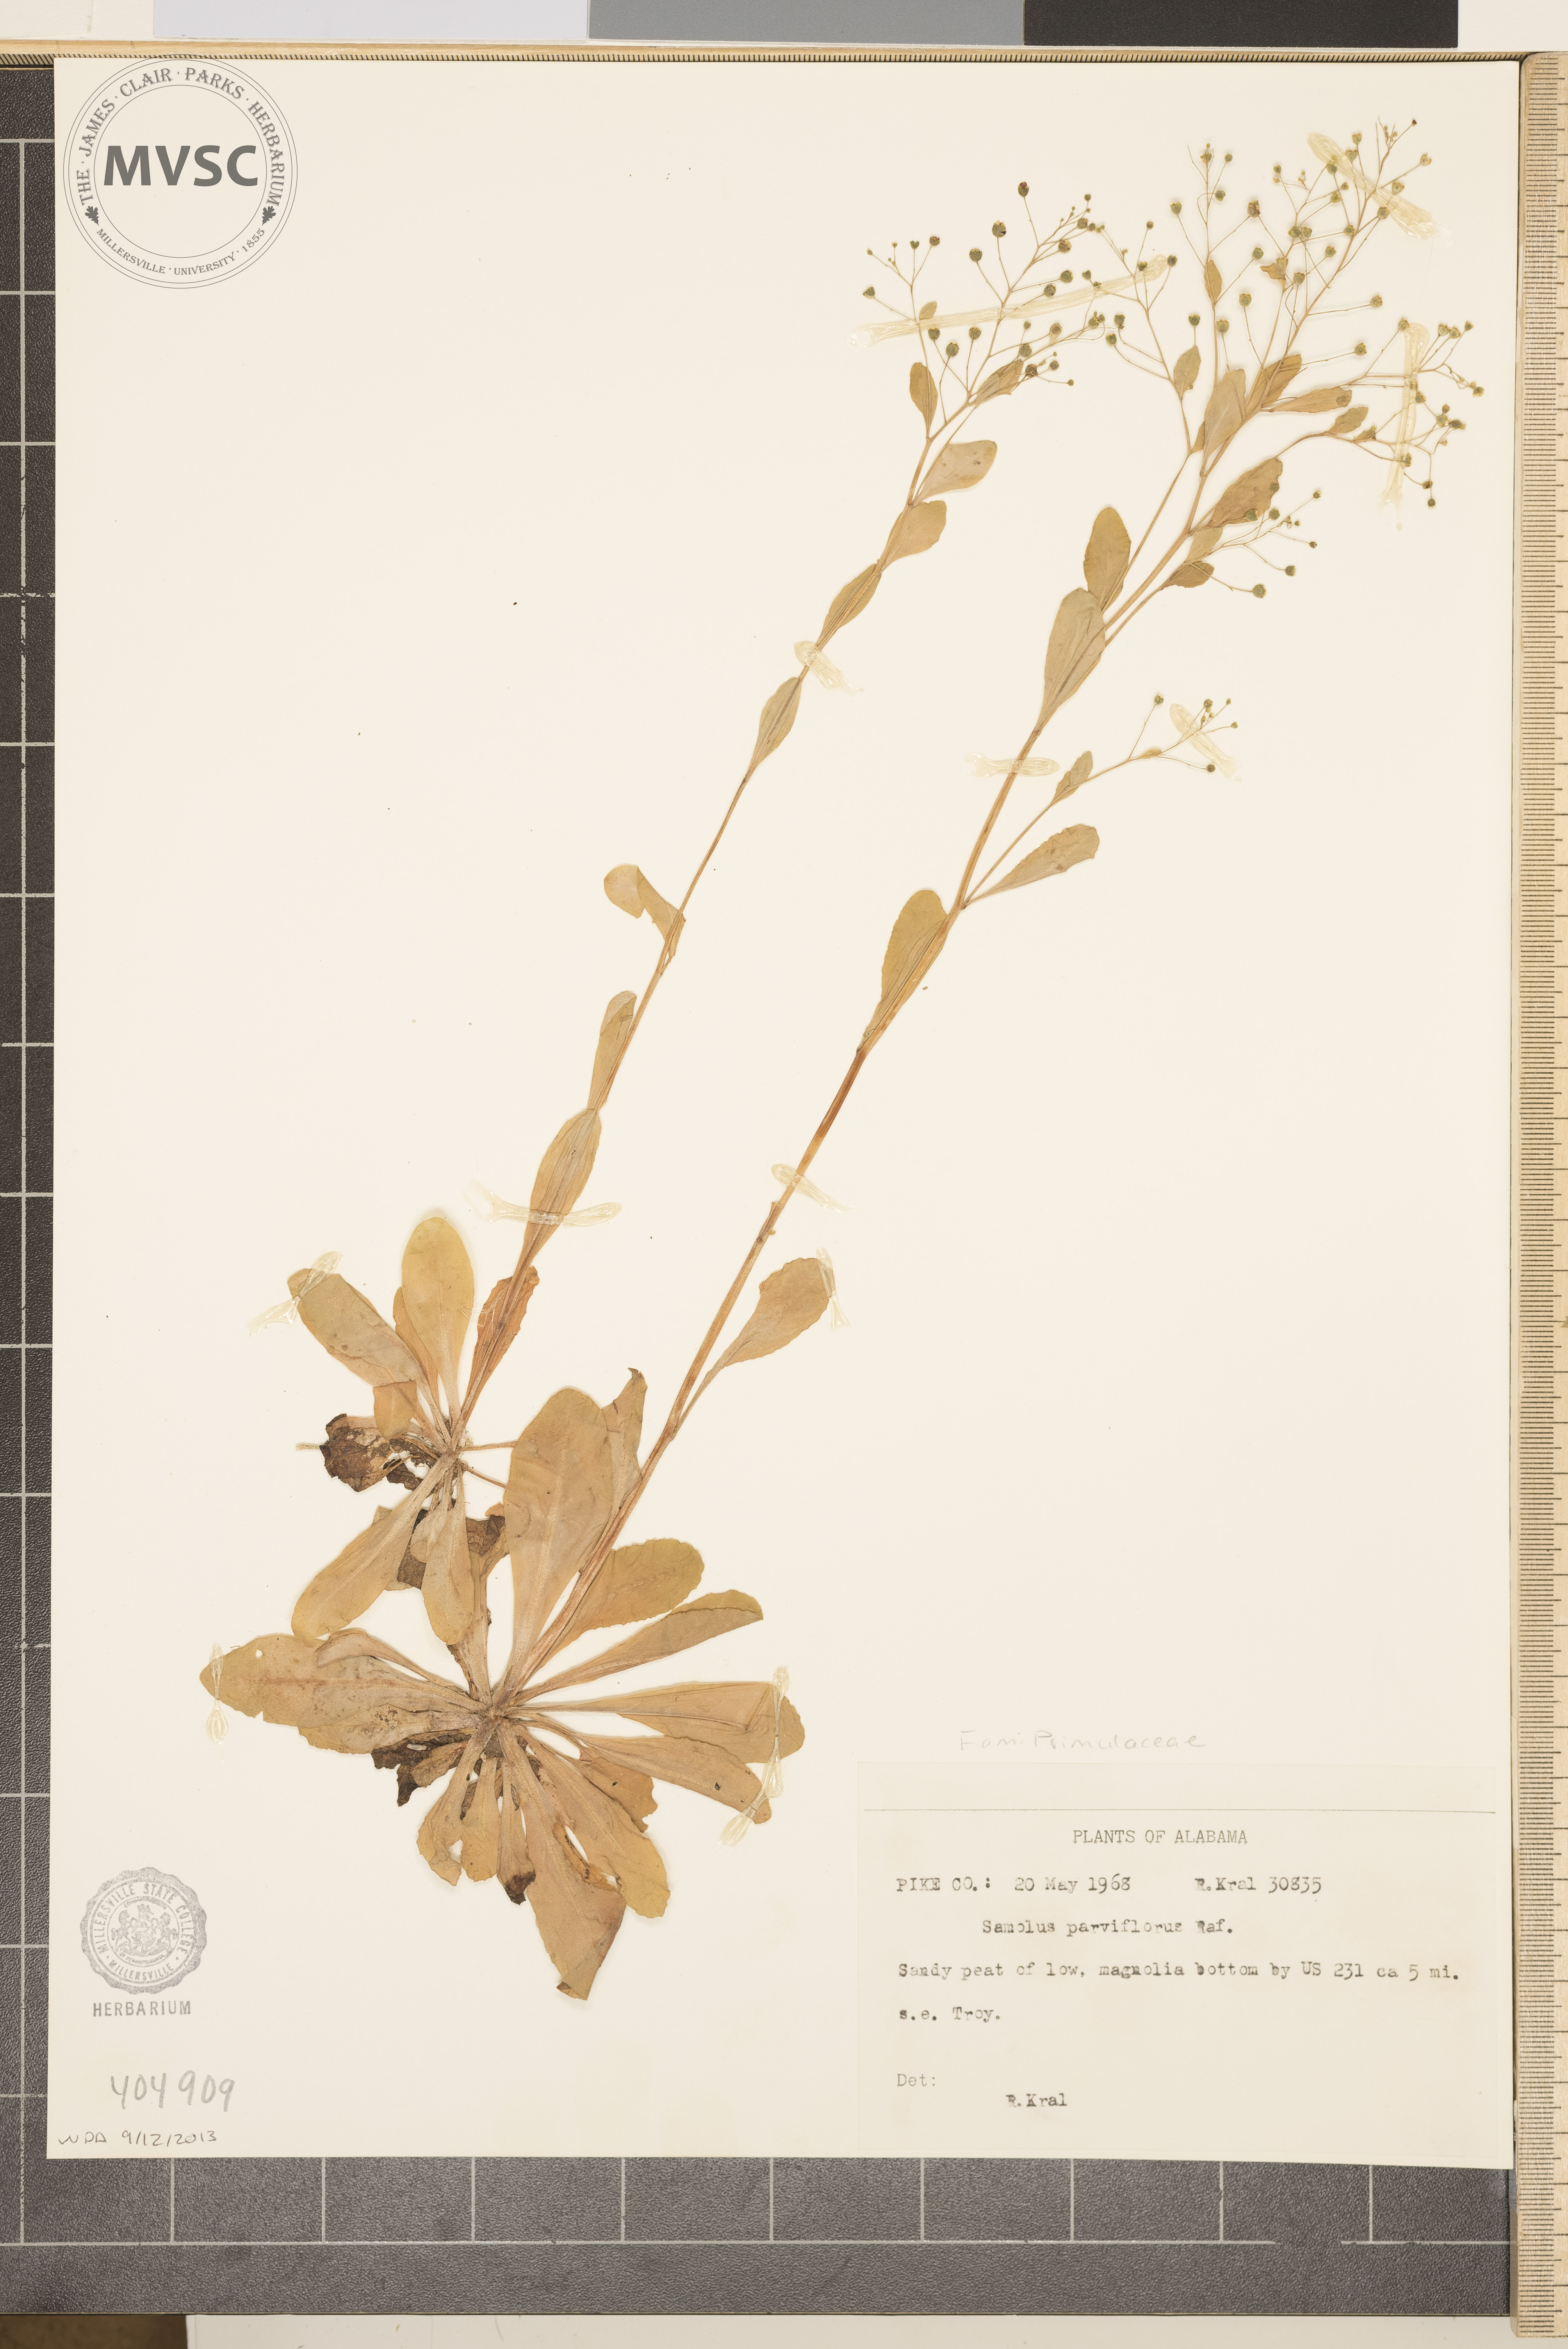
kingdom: Plantae
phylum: Tracheophyta
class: Magnoliopsida
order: Ericales
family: Primulaceae
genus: Samolus
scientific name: Samolus parviflorus
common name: False water pimpernel
